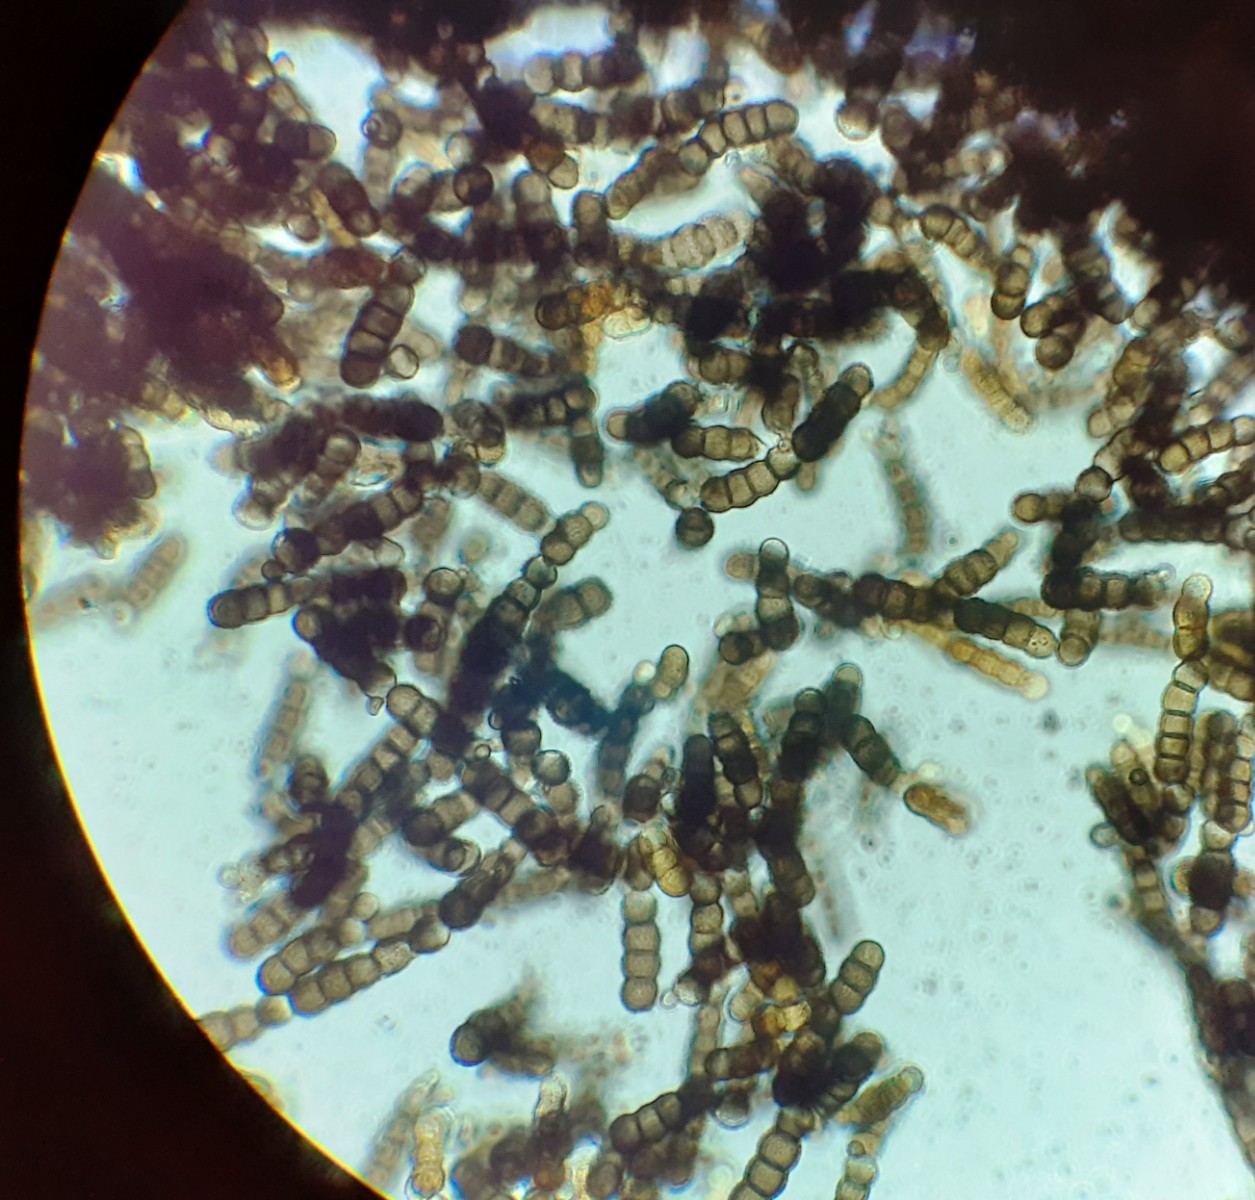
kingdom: Fungi
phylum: Ascomycota
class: Dothideomycetes
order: Pleosporales
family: Torulaceae
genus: Torula
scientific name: Torula herbarum
